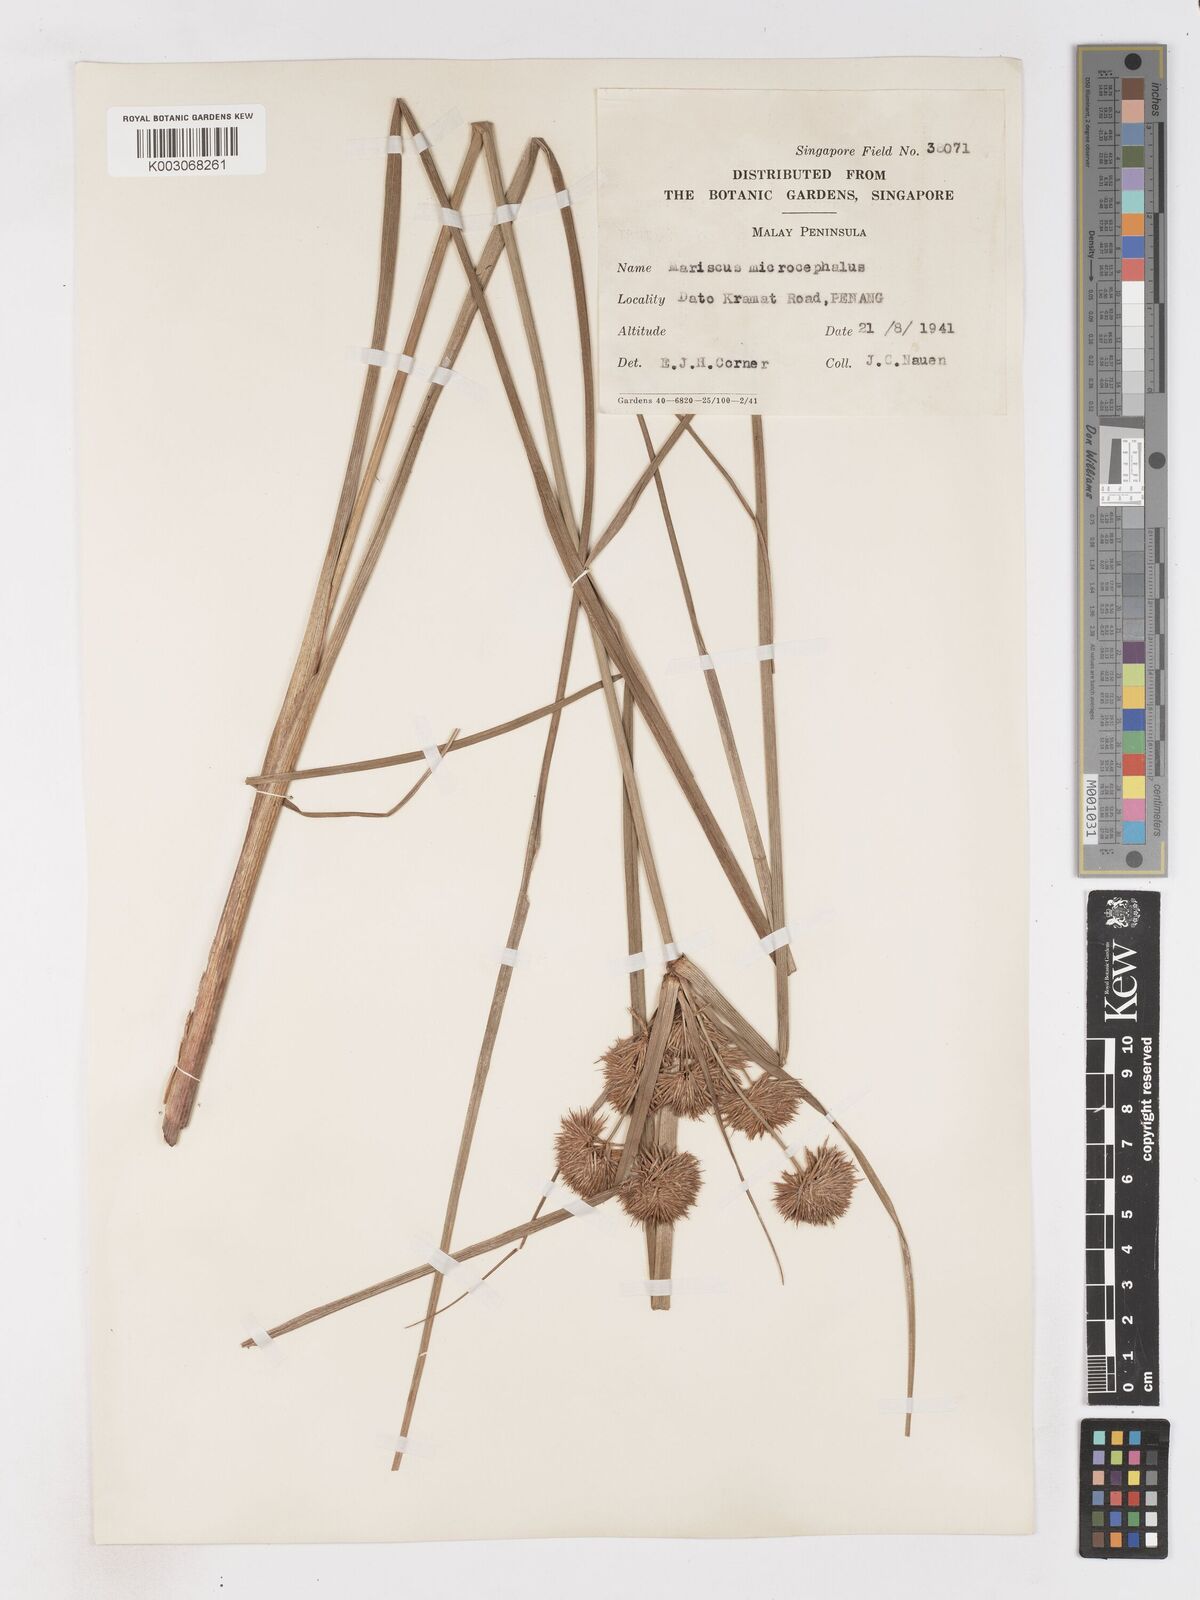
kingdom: Plantae
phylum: Tracheophyta
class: Liliopsida
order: Poales
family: Cyperaceae
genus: Cyperus
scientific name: Cyperus compactus
